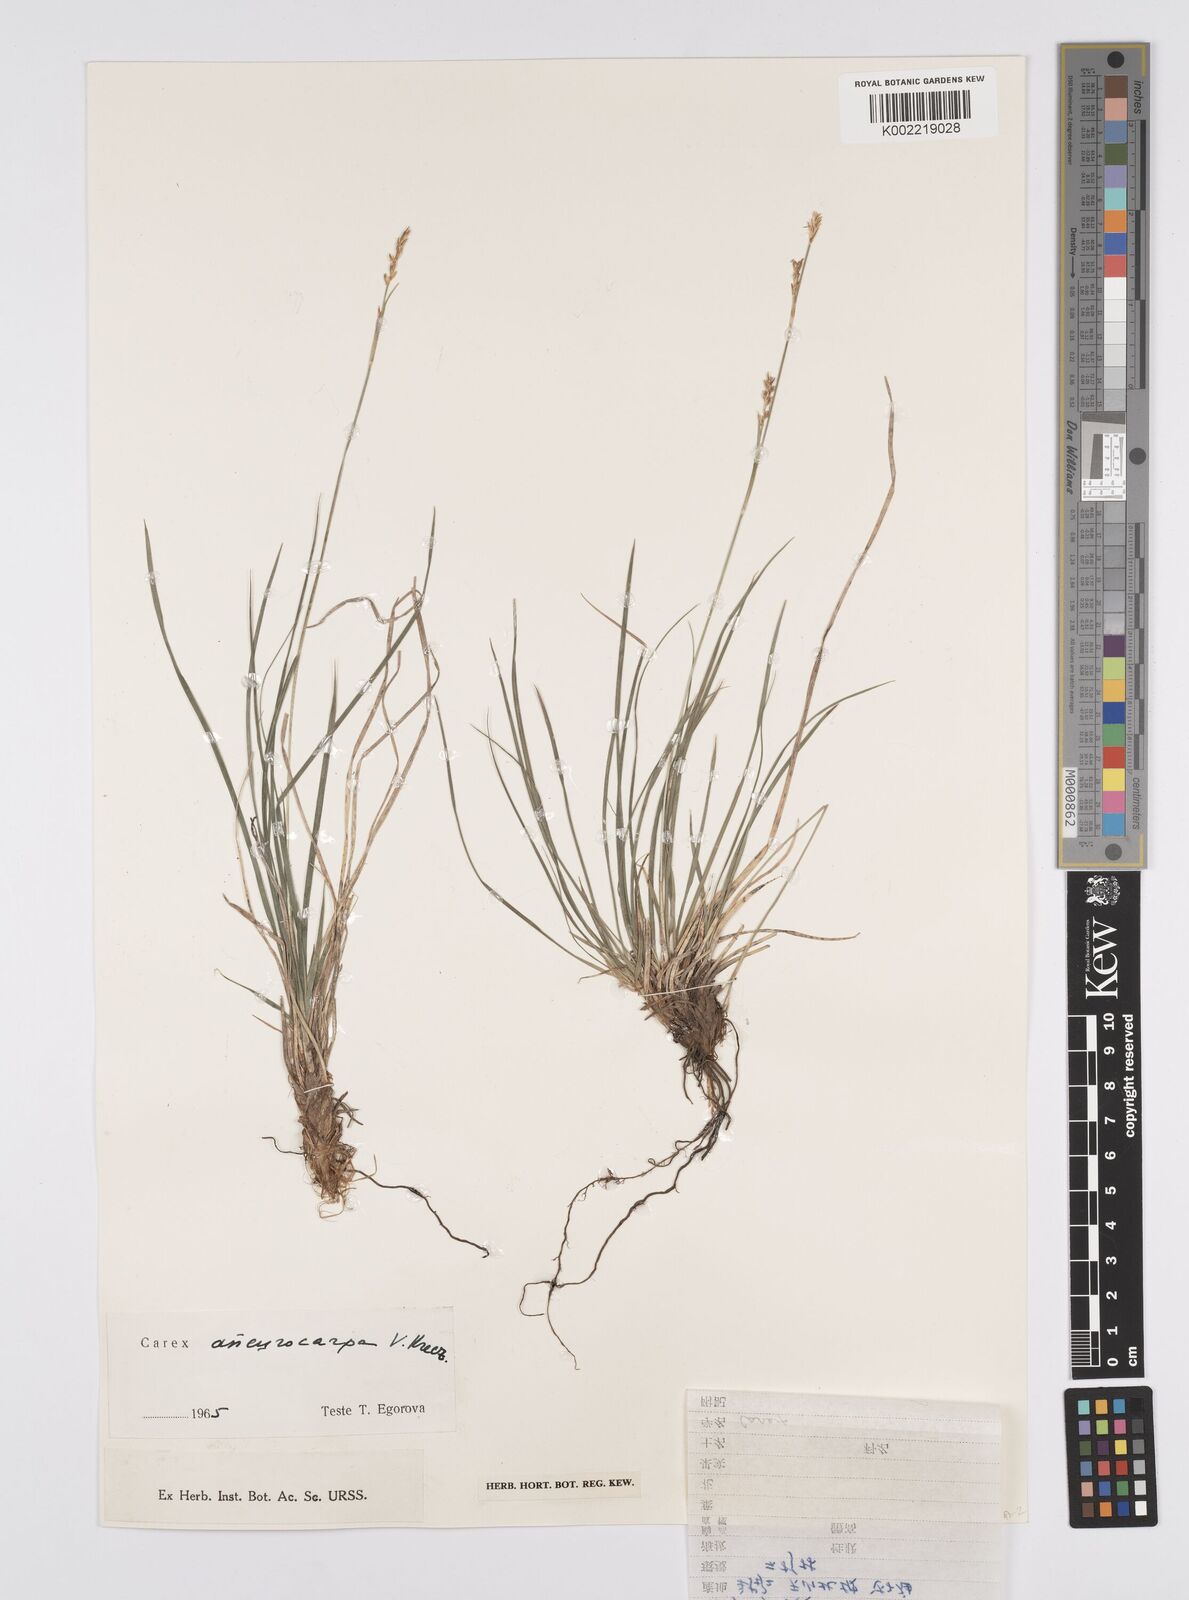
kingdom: Plantae
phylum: Tracheophyta
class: Liliopsida
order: Poales
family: Cyperaceae
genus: Carex
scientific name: Carex pediformis
